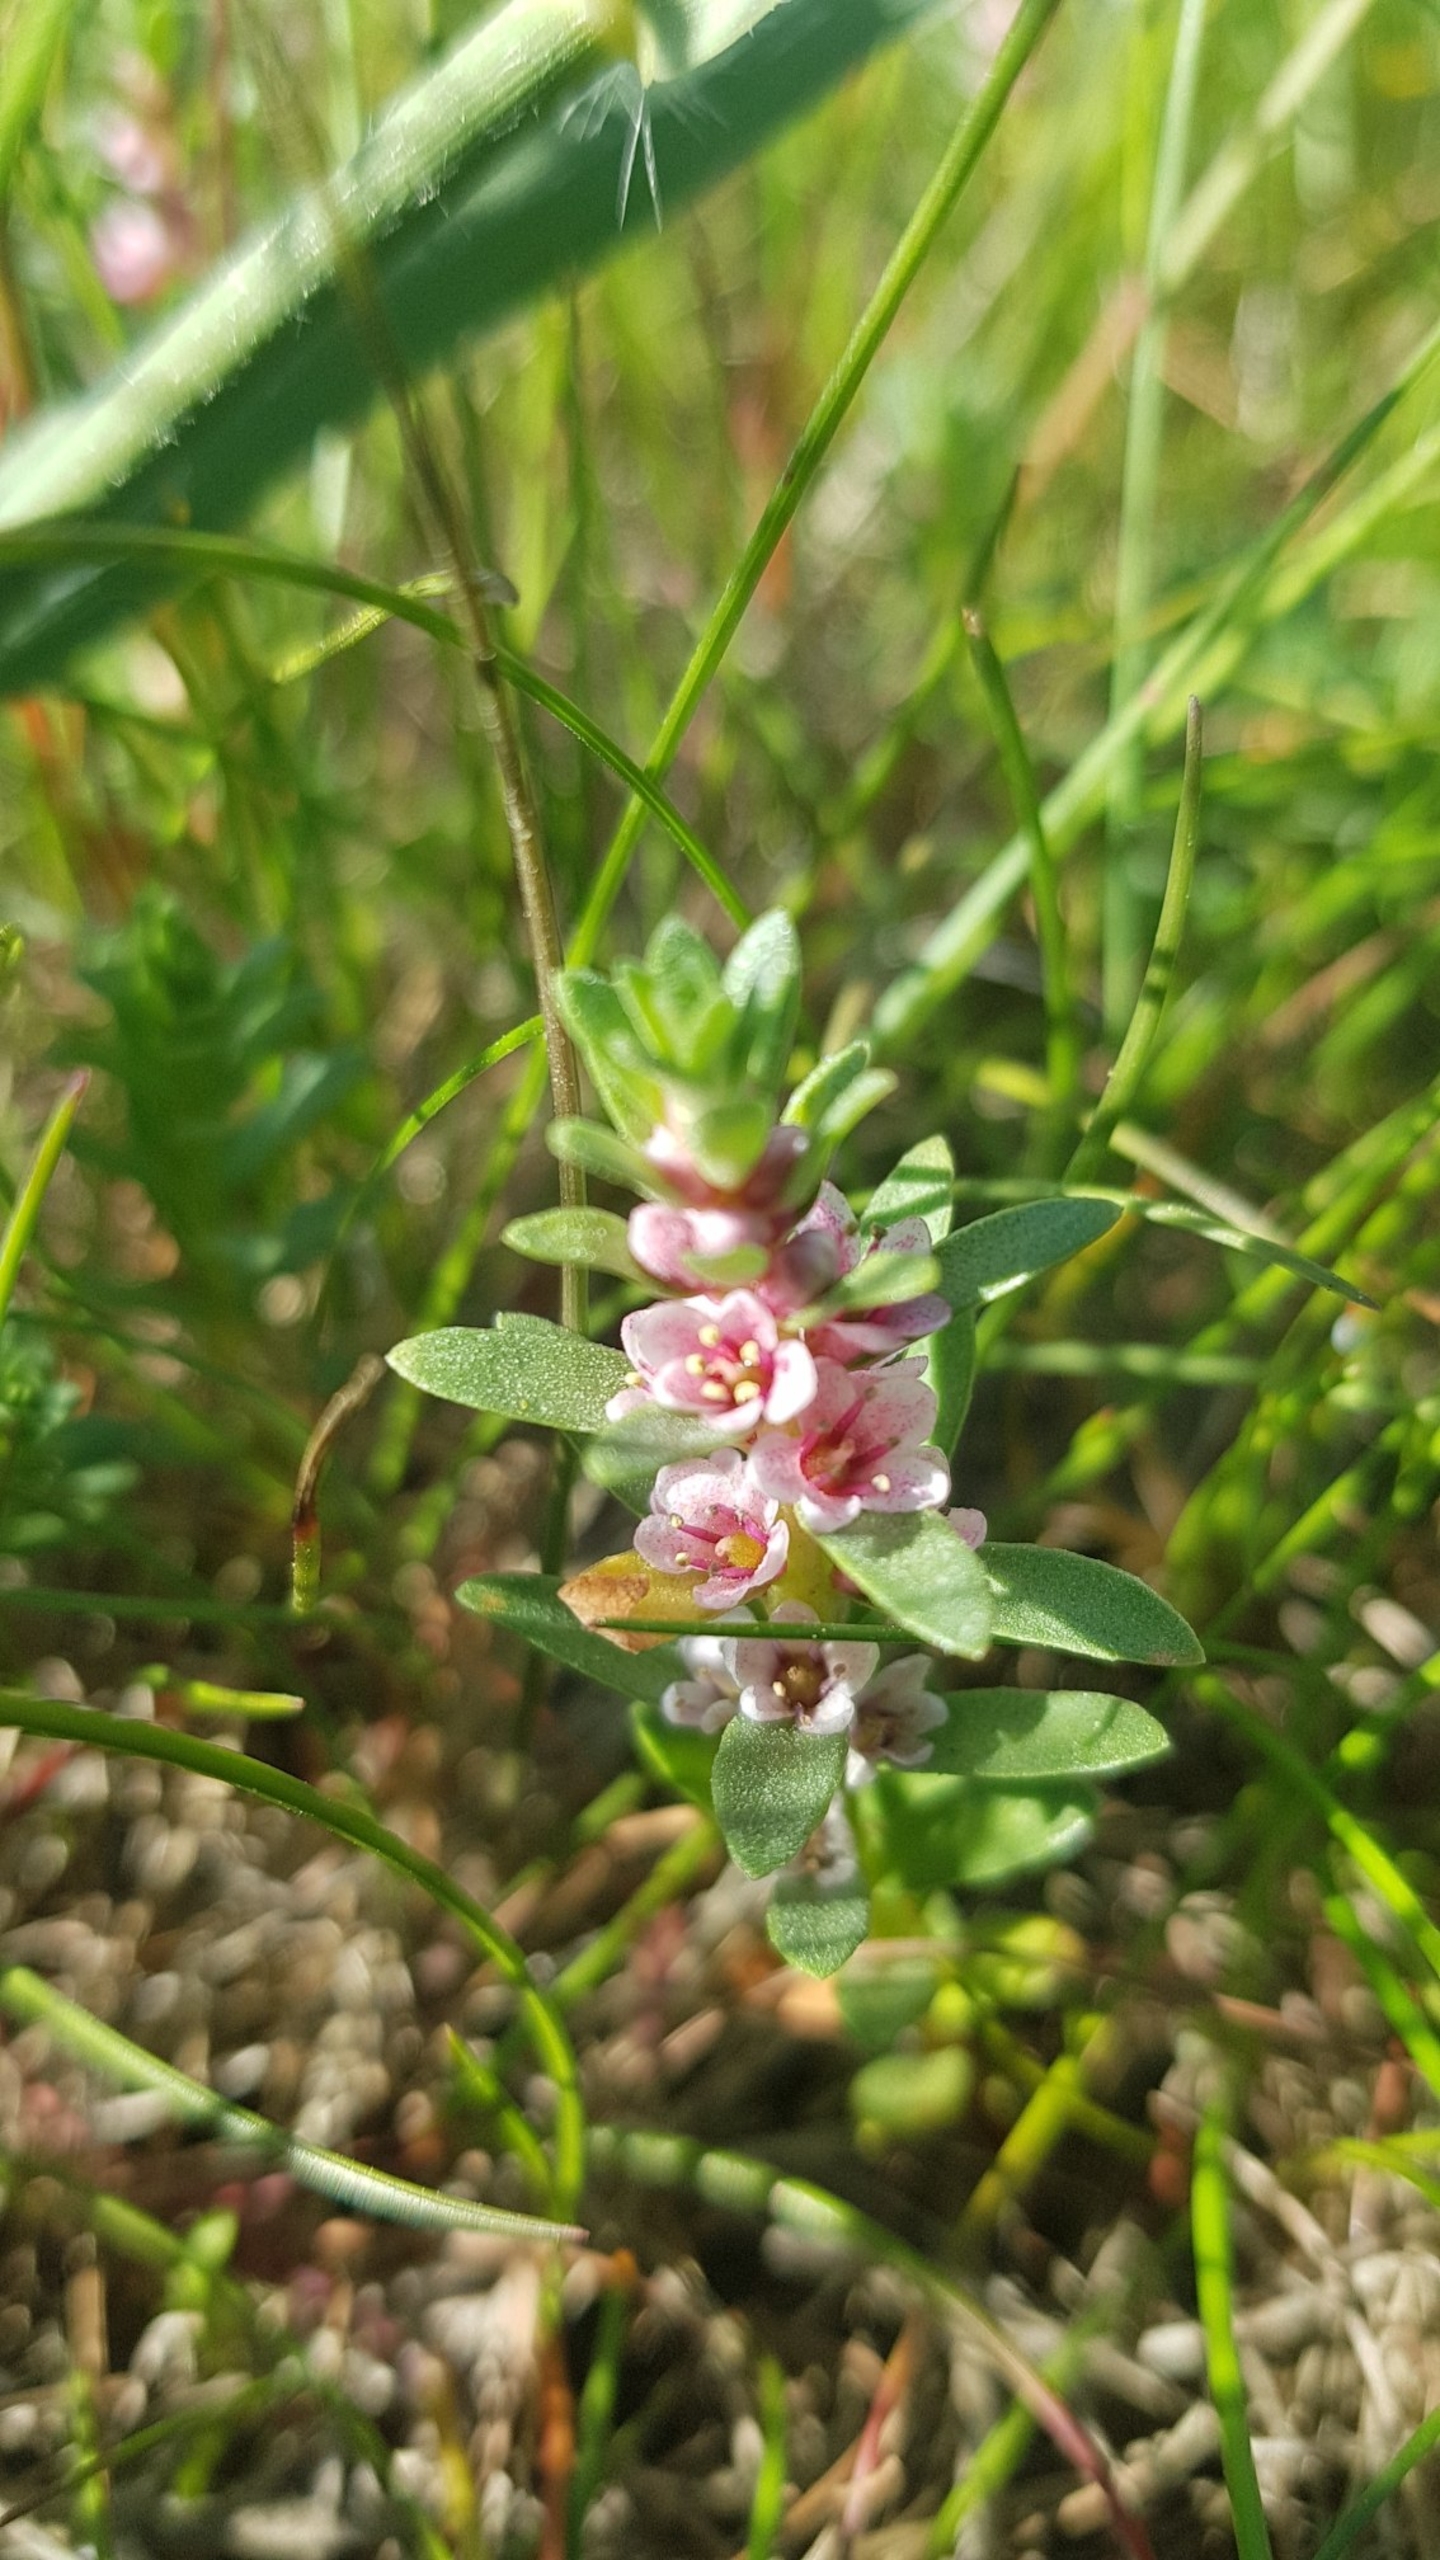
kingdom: Plantae
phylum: Tracheophyta
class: Magnoliopsida
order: Ericales
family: Primulaceae
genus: Lysimachia
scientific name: Lysimachia maritima
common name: Sandkryb
